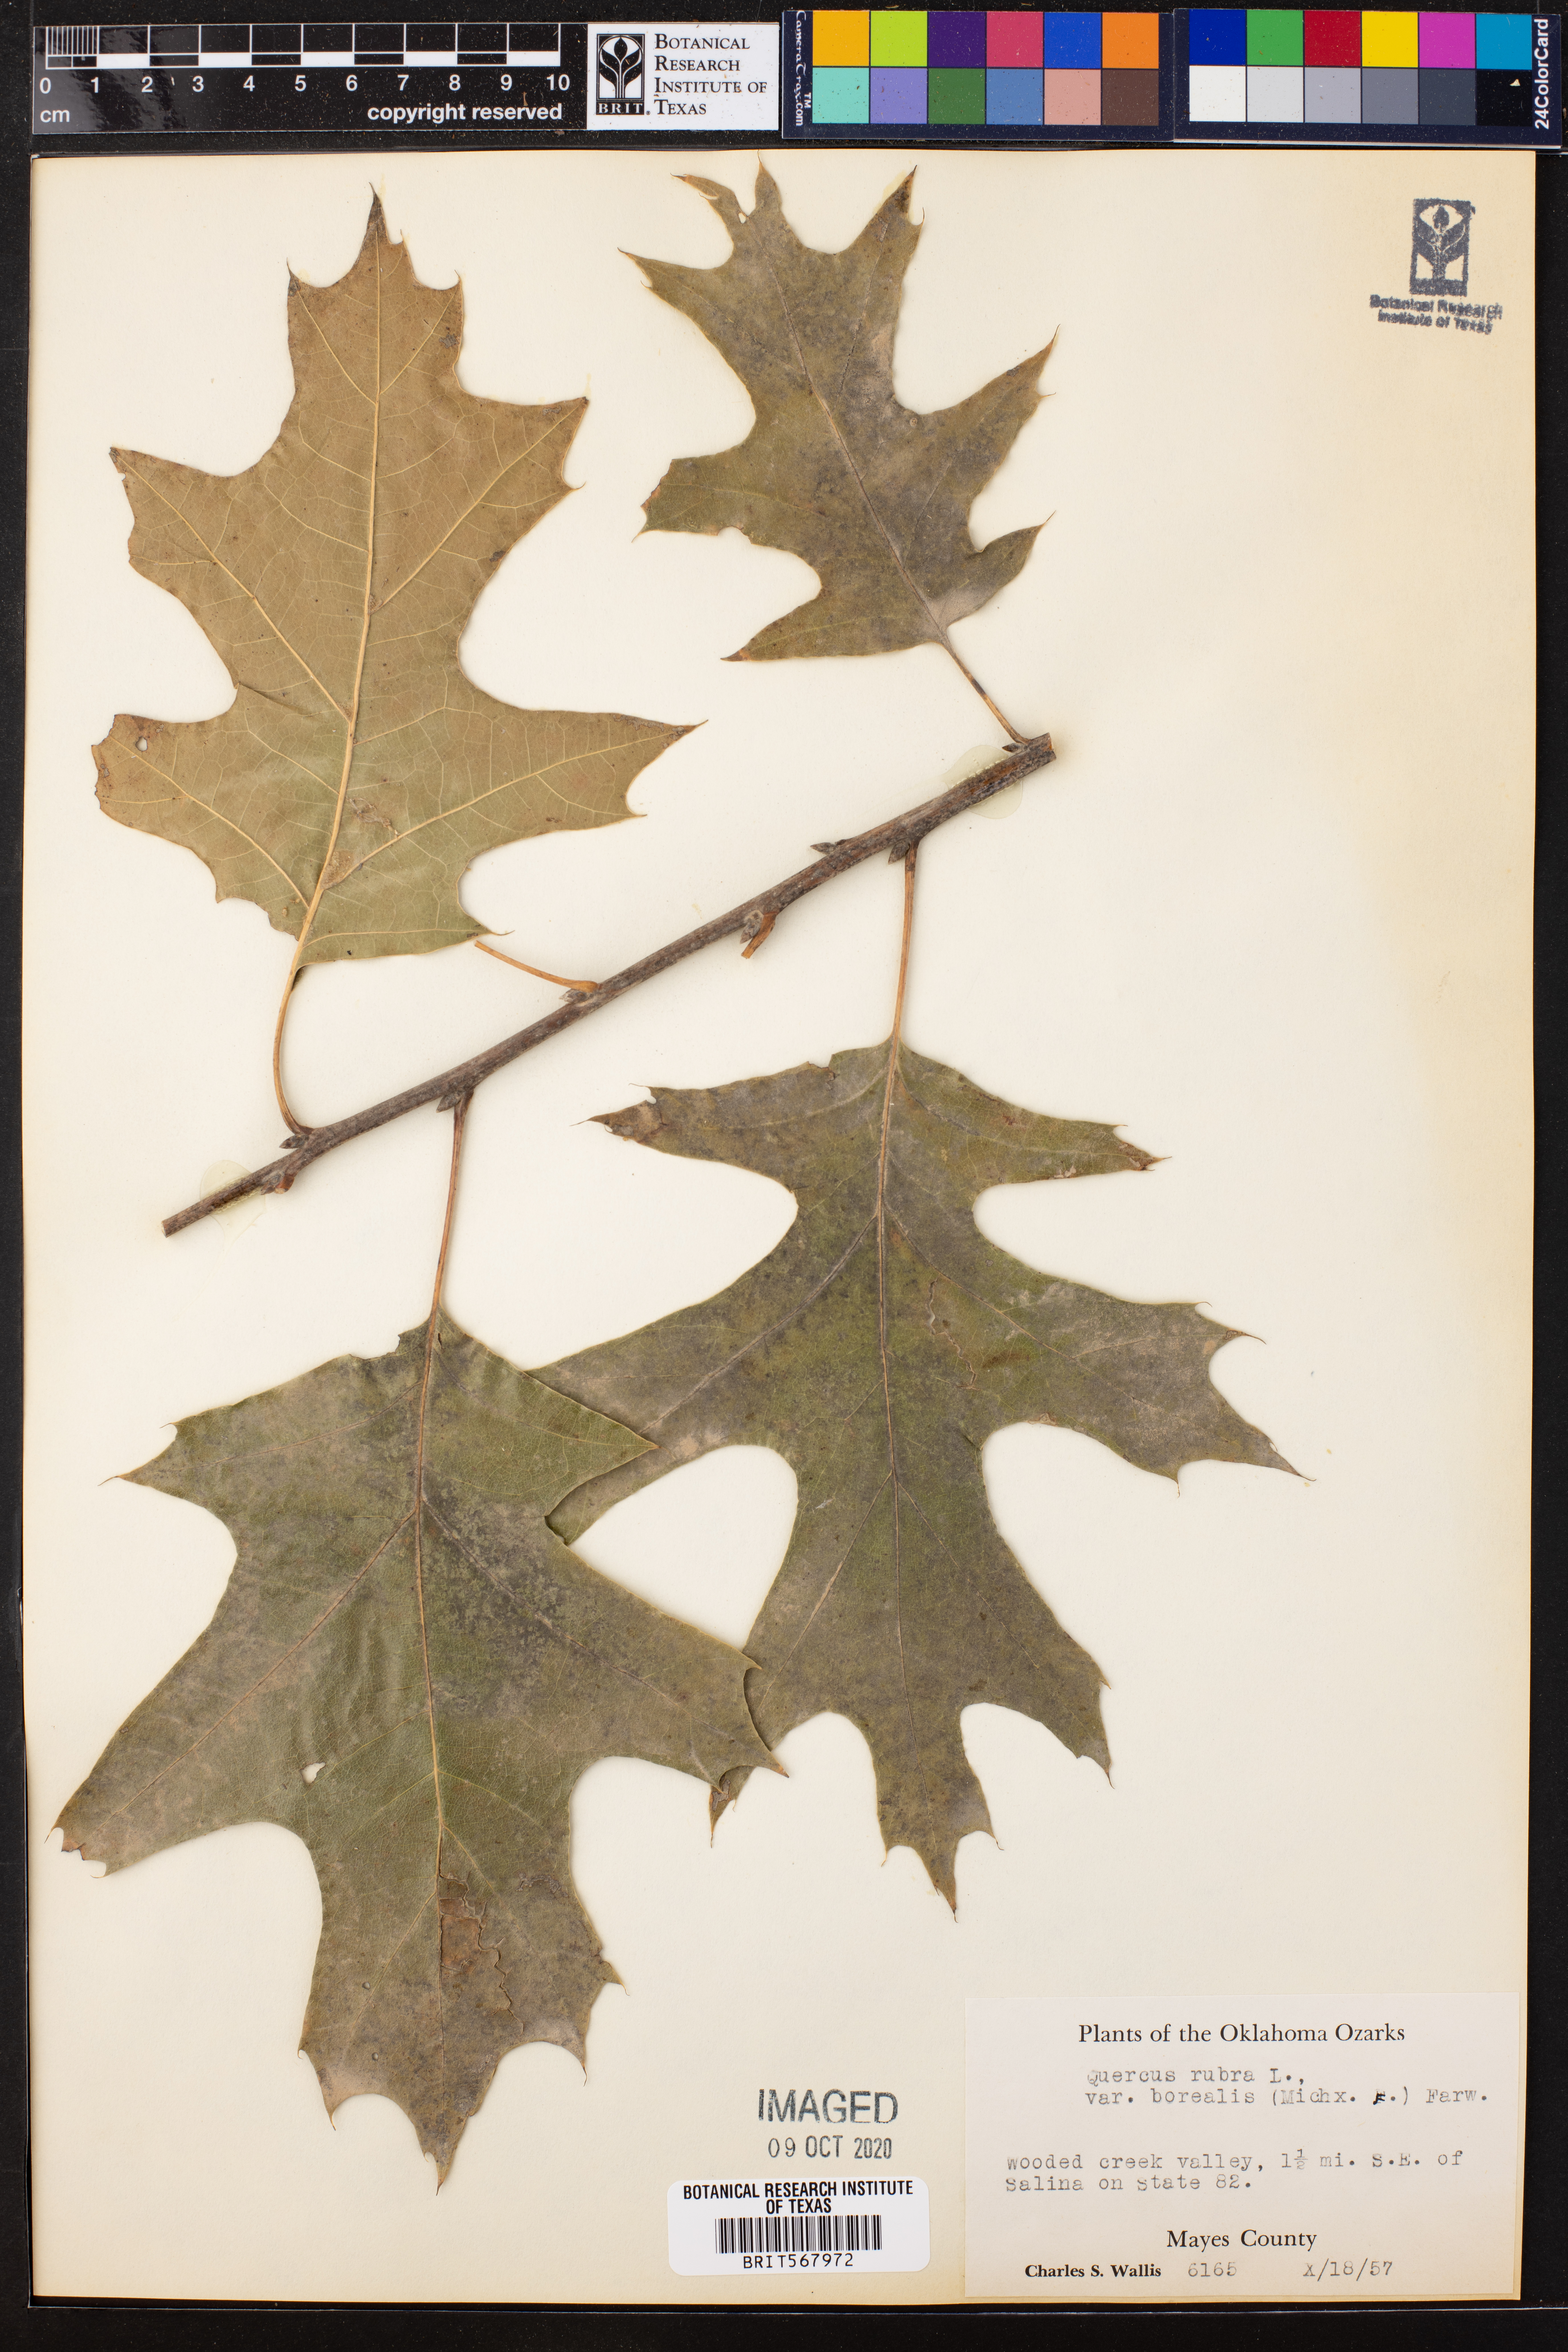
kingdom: Plantae
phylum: Tracheophyta
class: Magnoliopsida
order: Fagales
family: Fagaceae
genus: Quercus
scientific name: Quercus rubra
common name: Red oak
